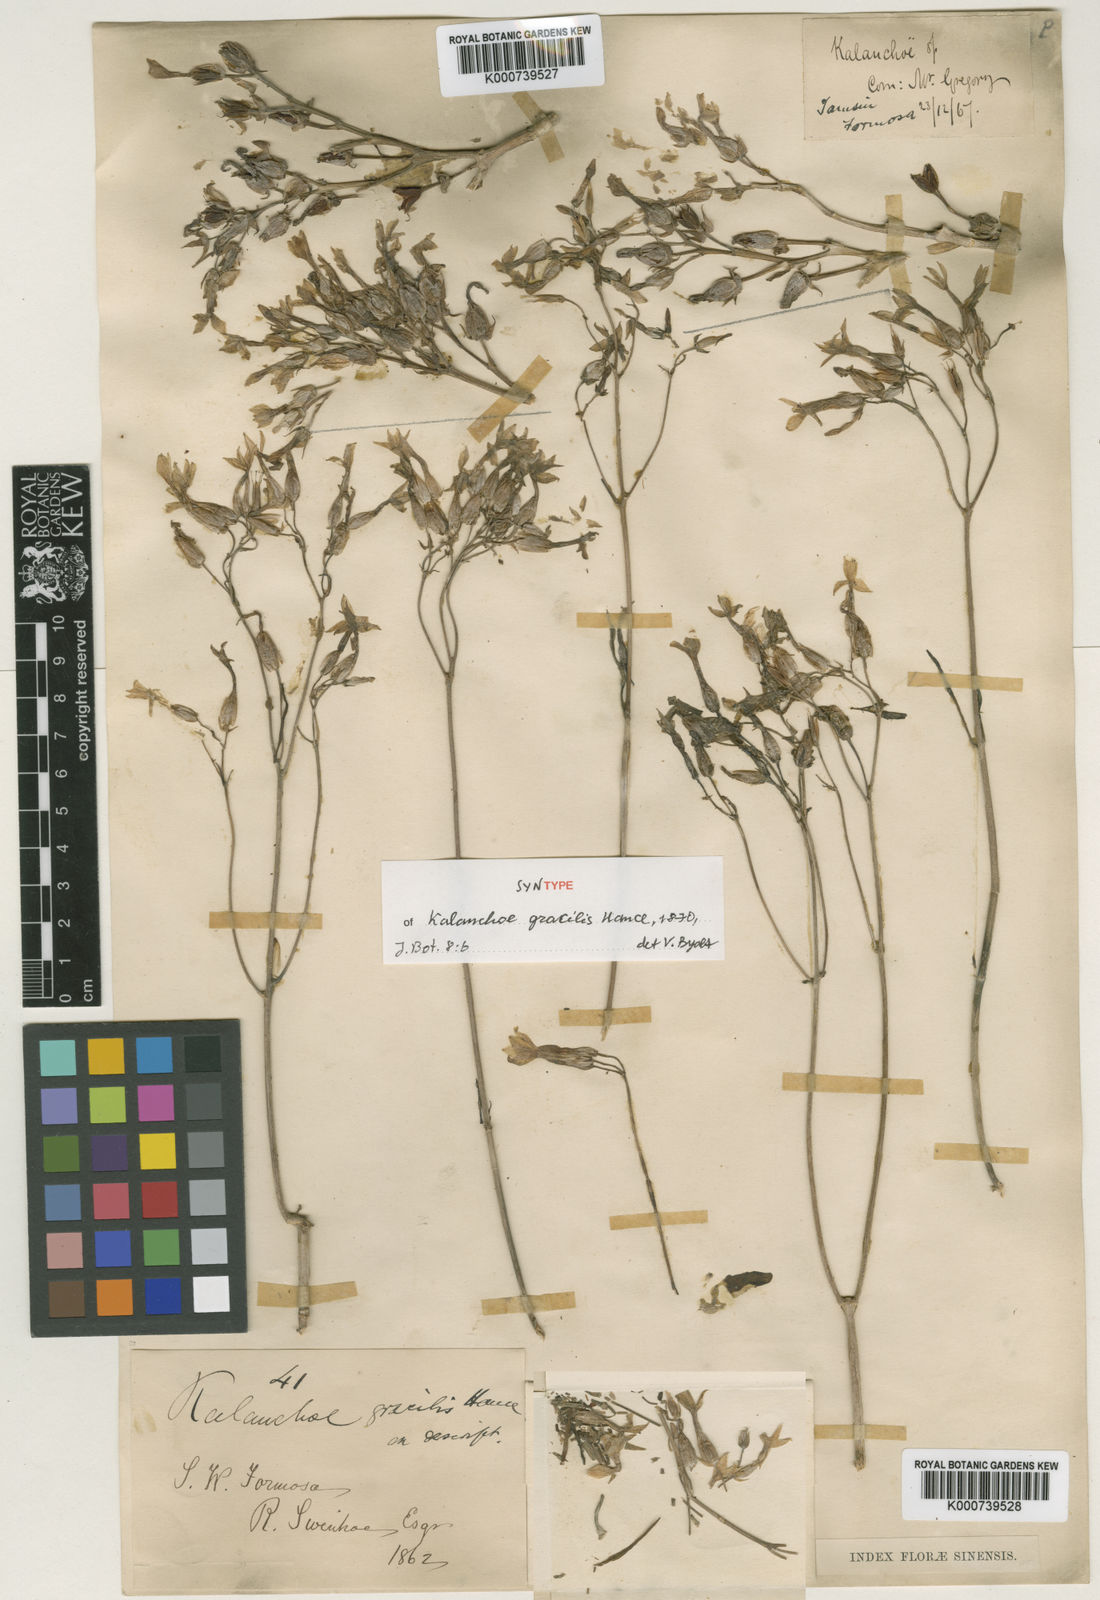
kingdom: Plantae
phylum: Tracheophyta
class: Magnoliopsida
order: Saxifragales
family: Crassulaceae
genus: Kalanchoe
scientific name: Kalanchoe ceratophylla
